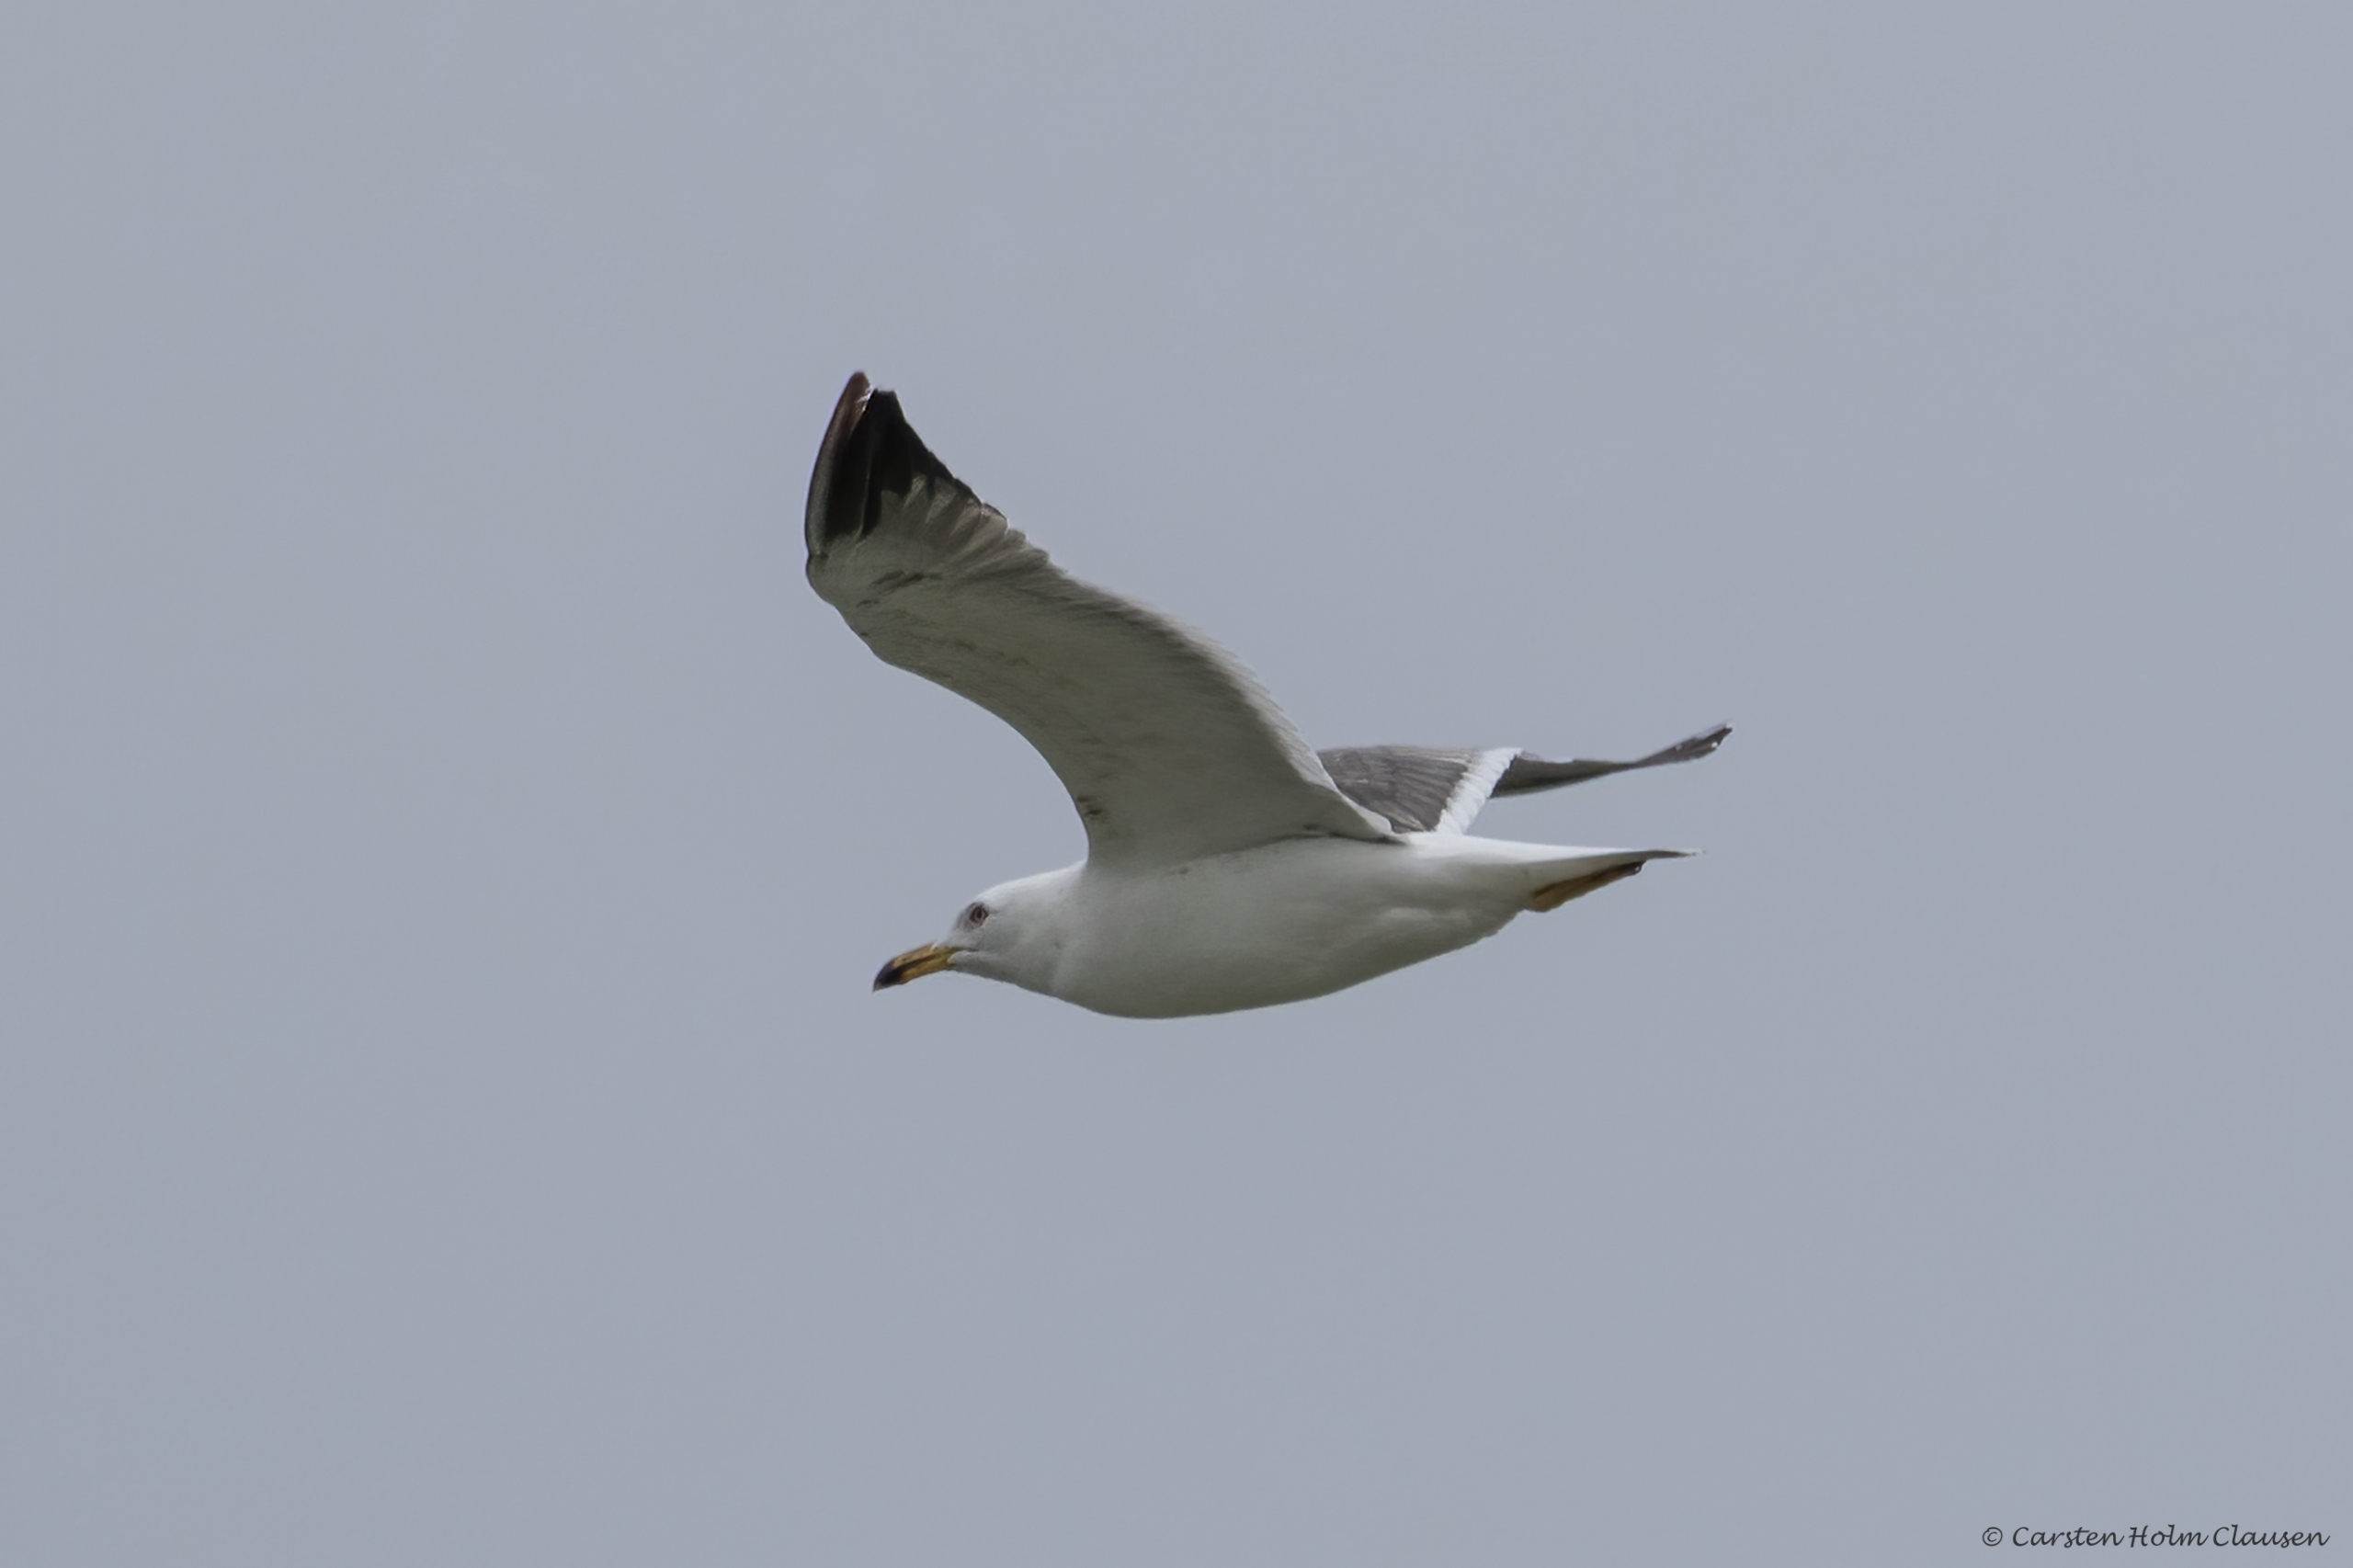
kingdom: Animalia
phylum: Chordata
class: Aves
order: Charadriiformes
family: Laridae
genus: Larus
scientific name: Larus argentatus
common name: Sølvmåge
